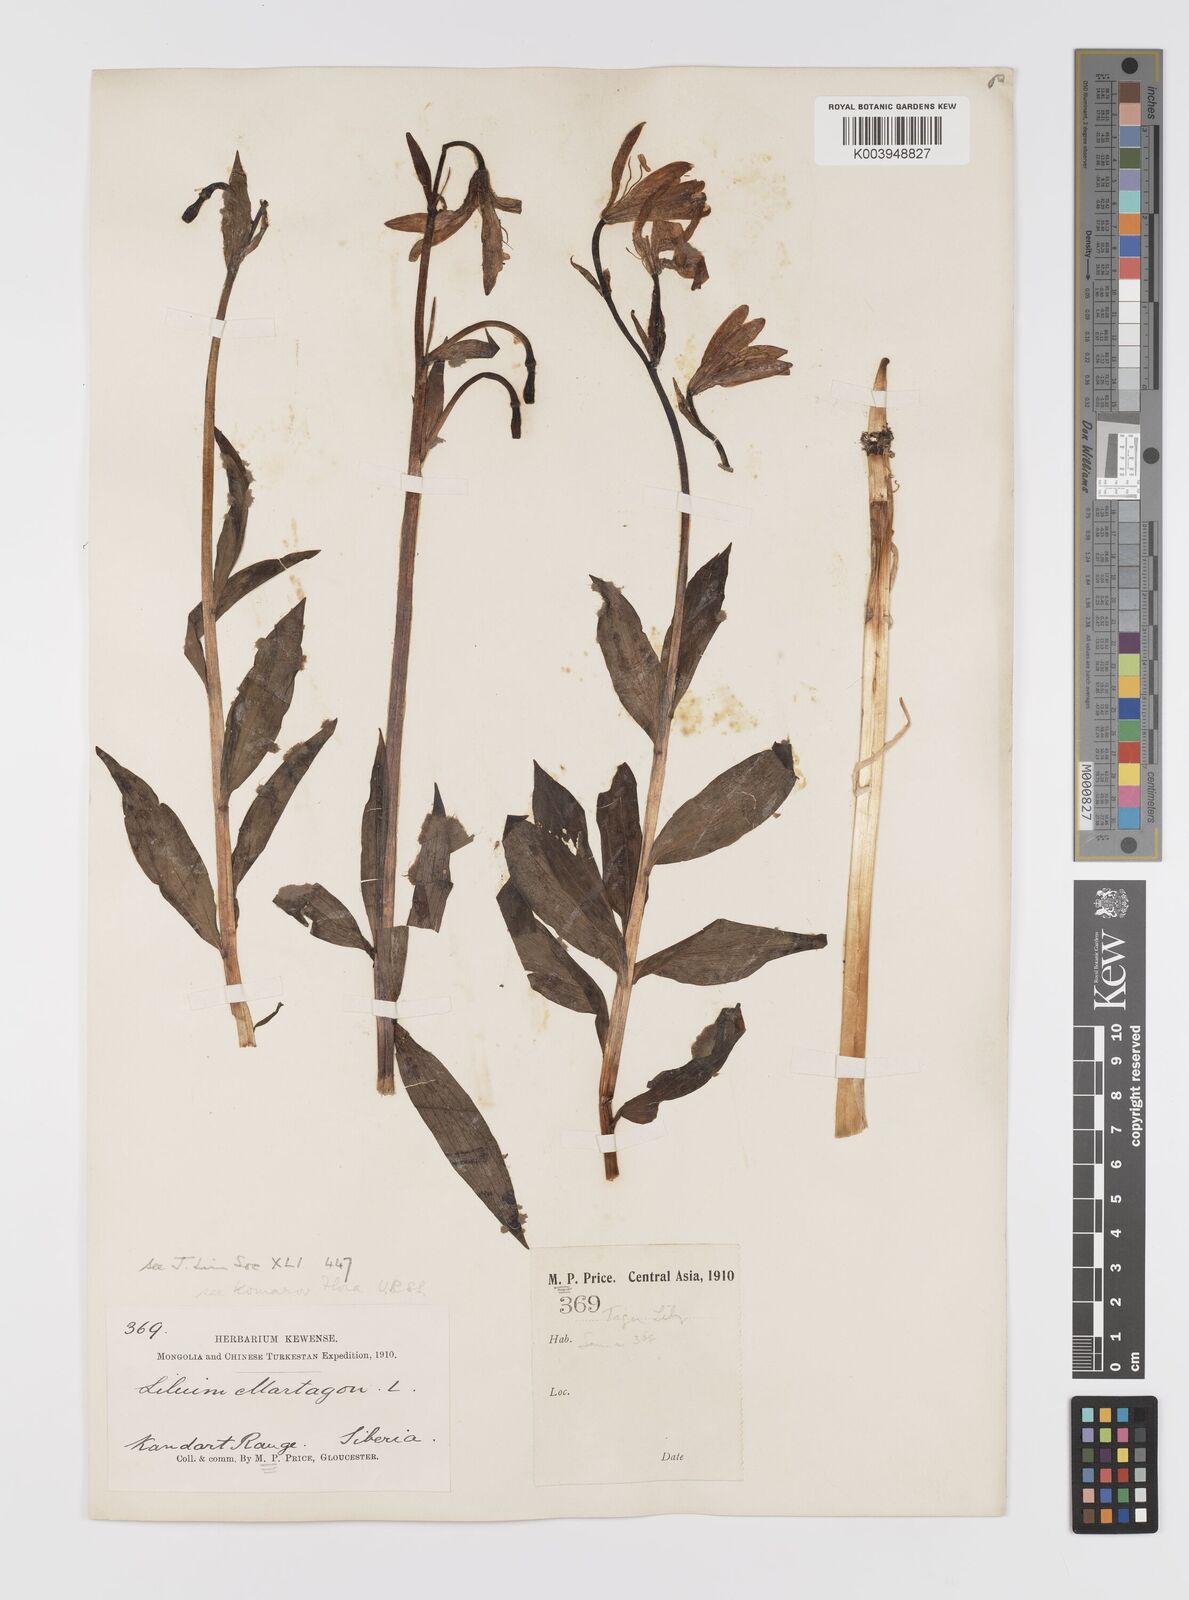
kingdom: Plantae
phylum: Tracheophyta
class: Liliopsida
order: Liliales
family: Liliaceae
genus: Lilium
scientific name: Lilium martagon
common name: Martagon lily
